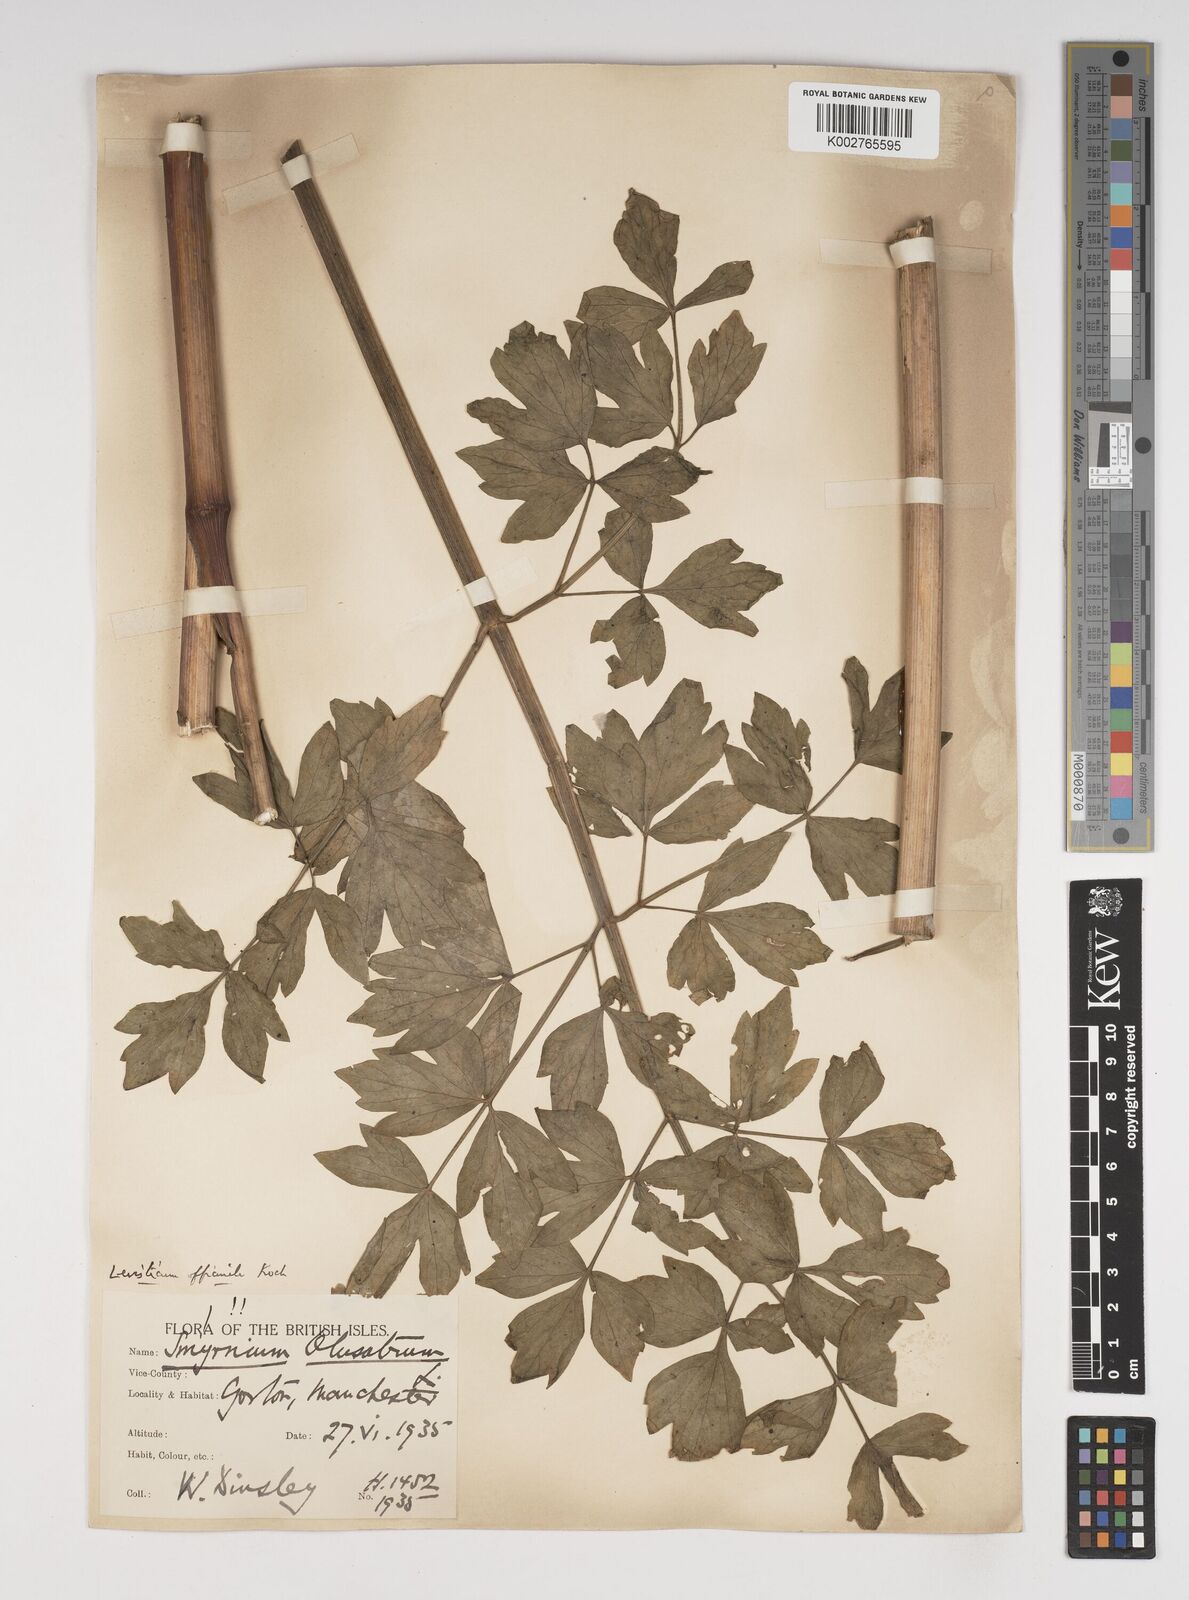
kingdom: Plantae
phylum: Tracheophyta
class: Magnoliopsida
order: Apiales
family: Apiaceae
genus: Levisticum
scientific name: Levisticum officinale
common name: Lovage
